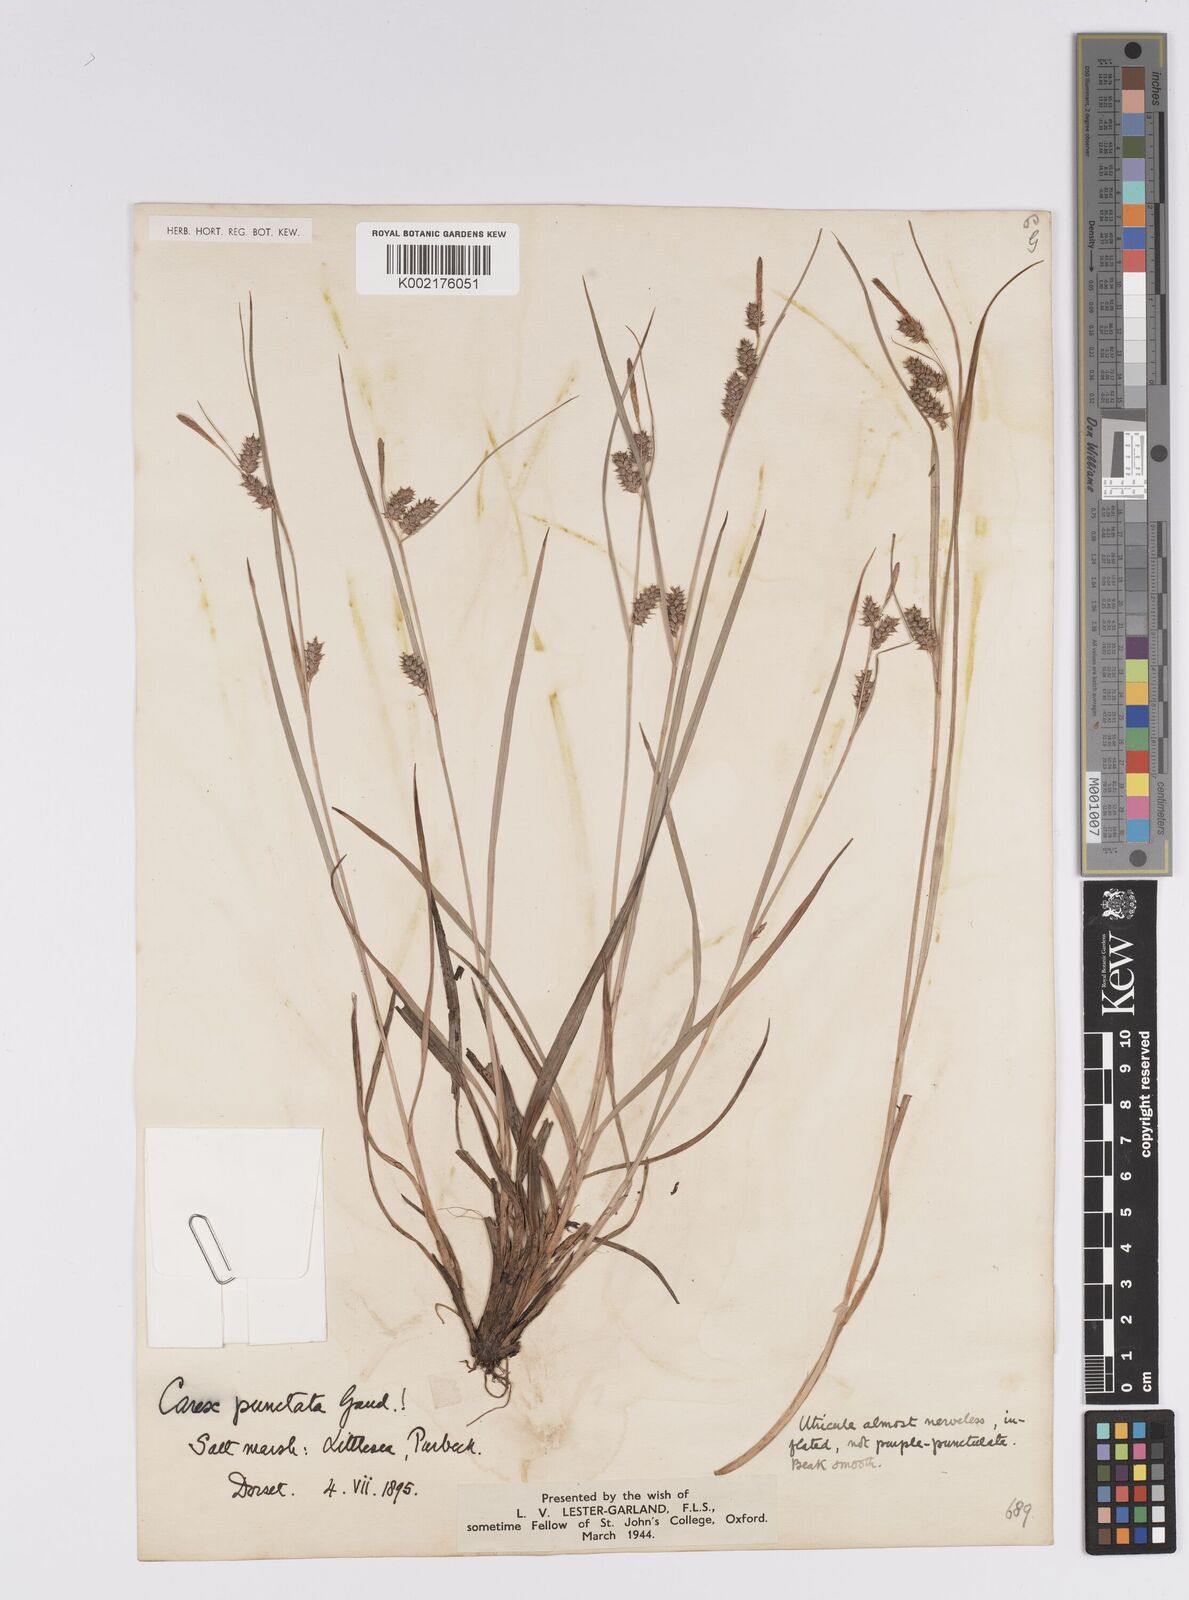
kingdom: Plantae
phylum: Tracheophyta
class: Liliopsida
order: Poales
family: Cyperaceae
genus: Carex
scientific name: Carex punctata
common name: Dotted sedge
